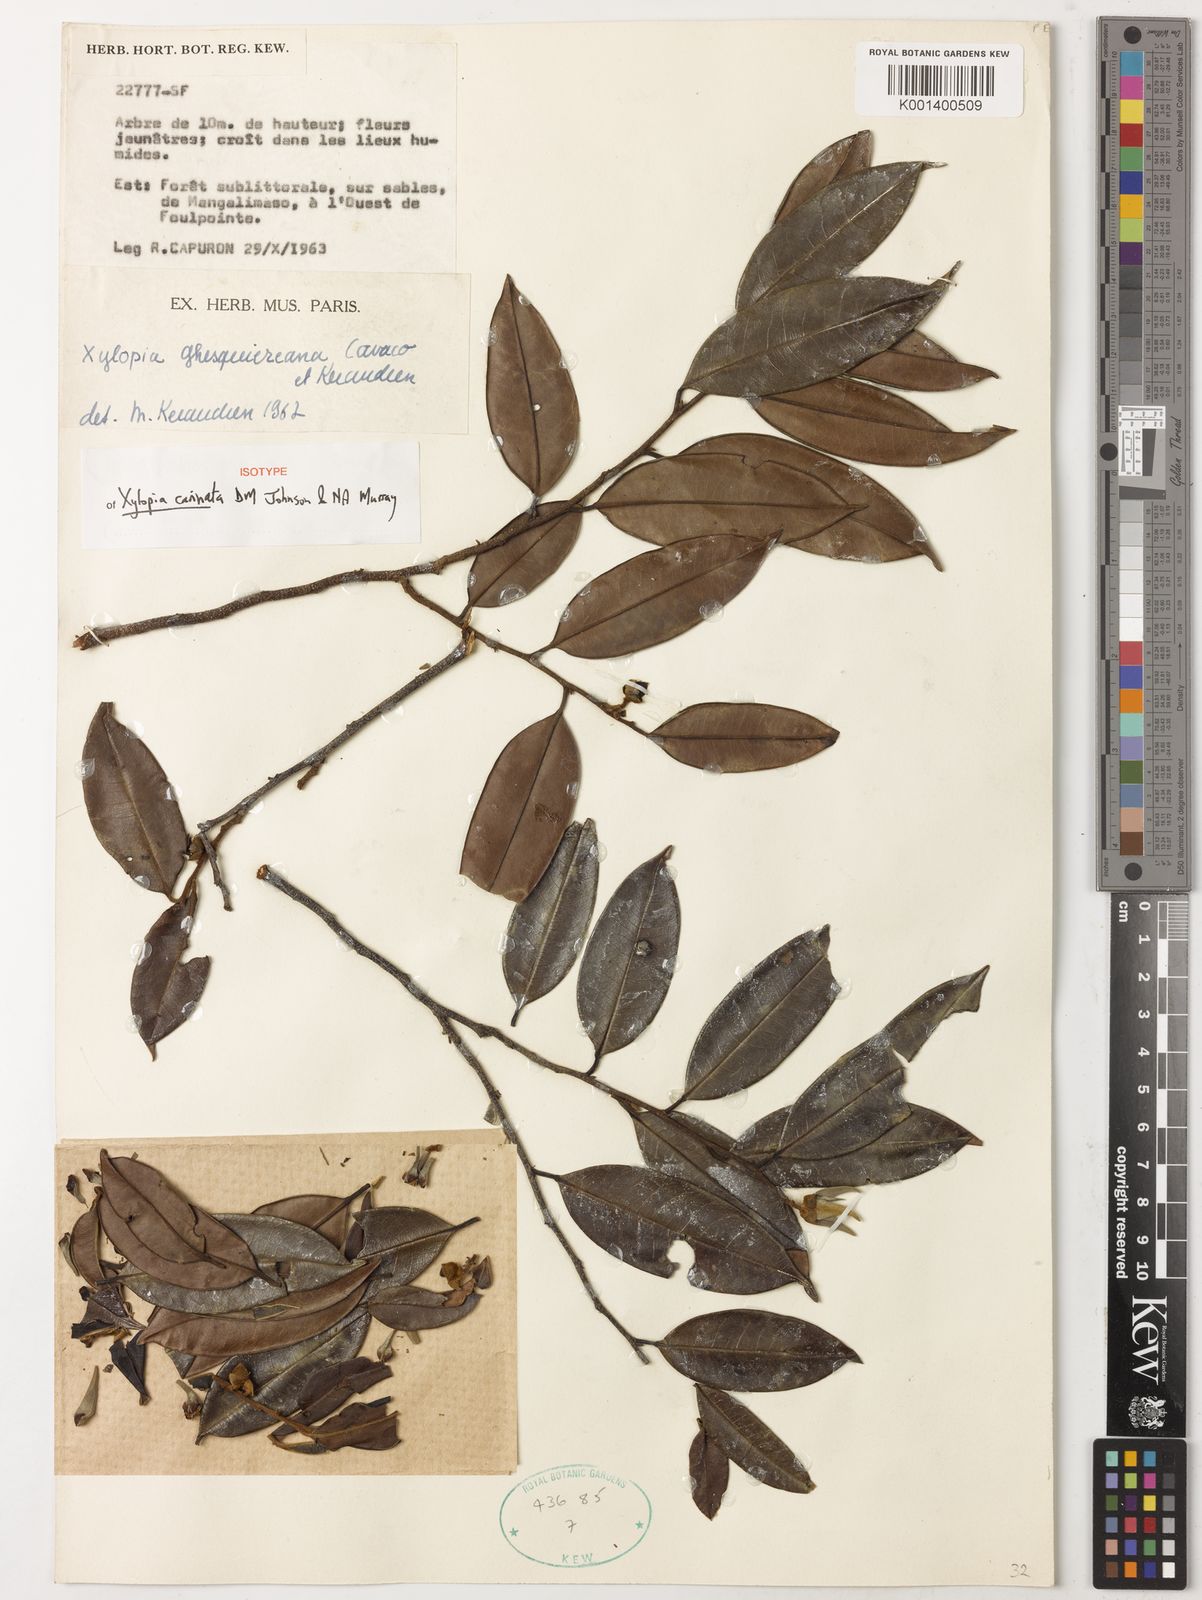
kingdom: Plantae
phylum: Tracheophyta
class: Magnoliopsida
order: Magnoliales
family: Annonaceae
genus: Xylopia
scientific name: Xylopia
